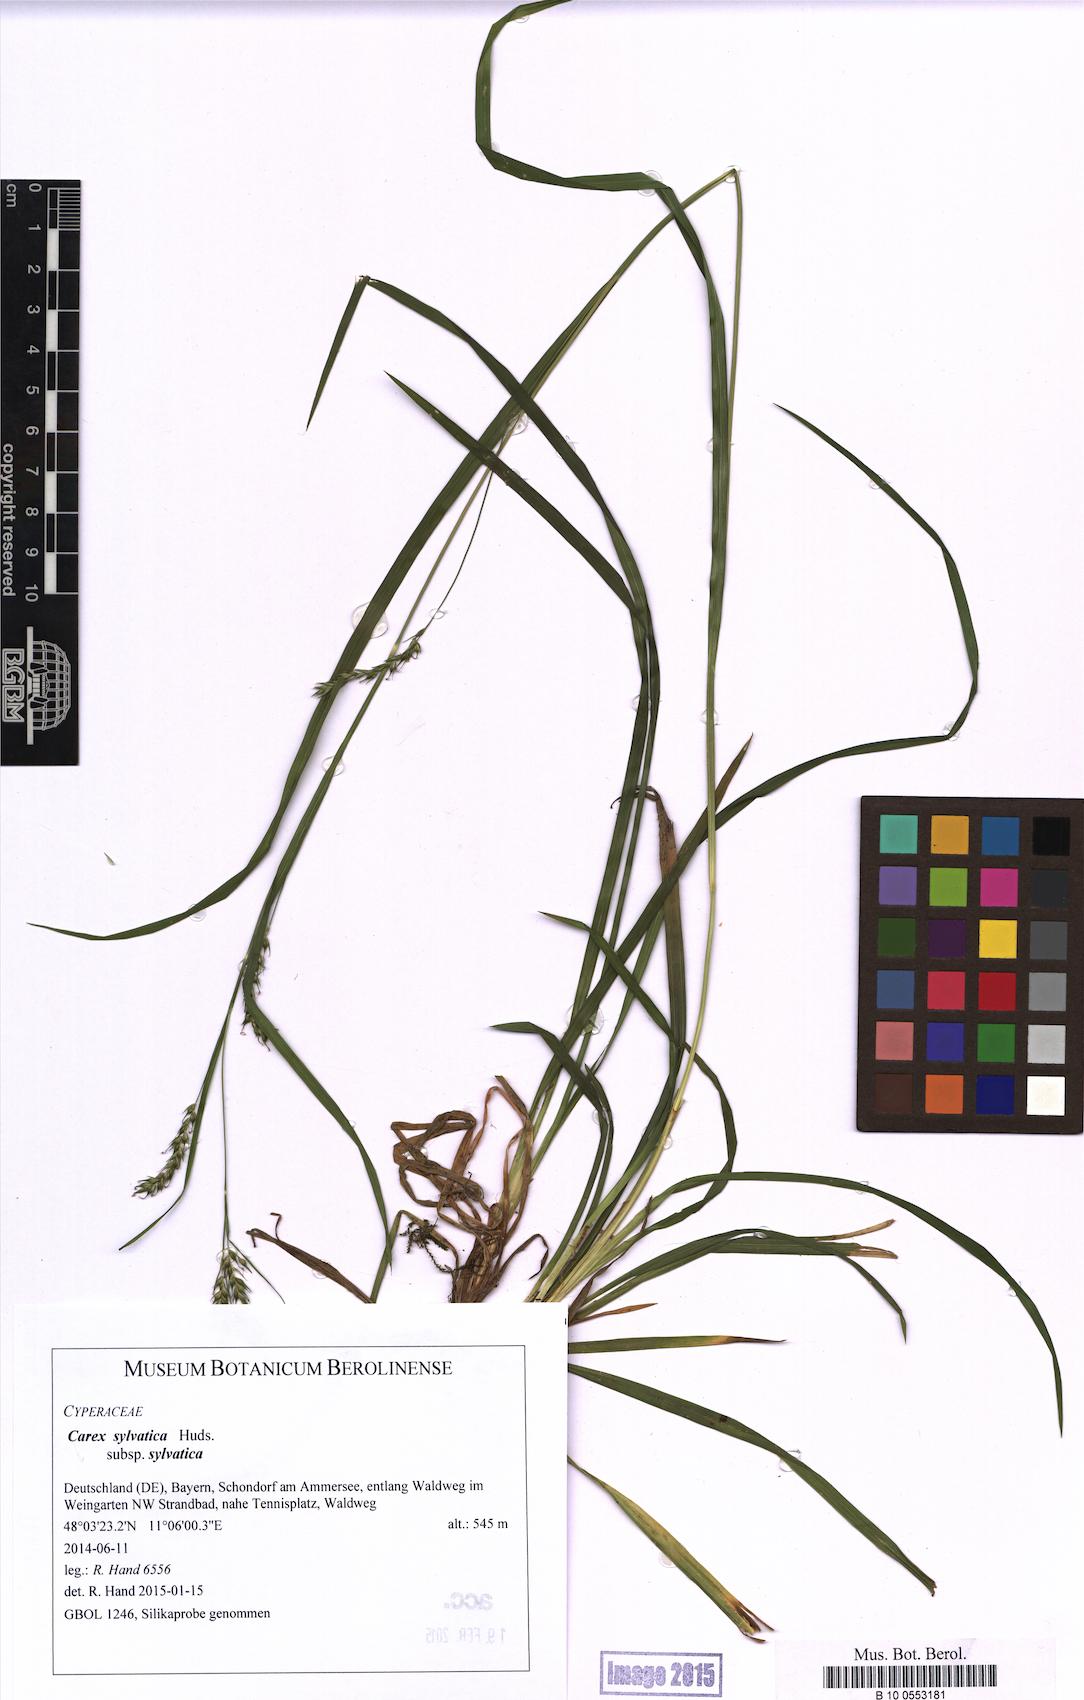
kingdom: Plantae
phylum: Tracheophyta
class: Liliopsida
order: Poales
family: Cyperaceae
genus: Carex
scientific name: Carex sylvatica
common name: Wood-sedge
